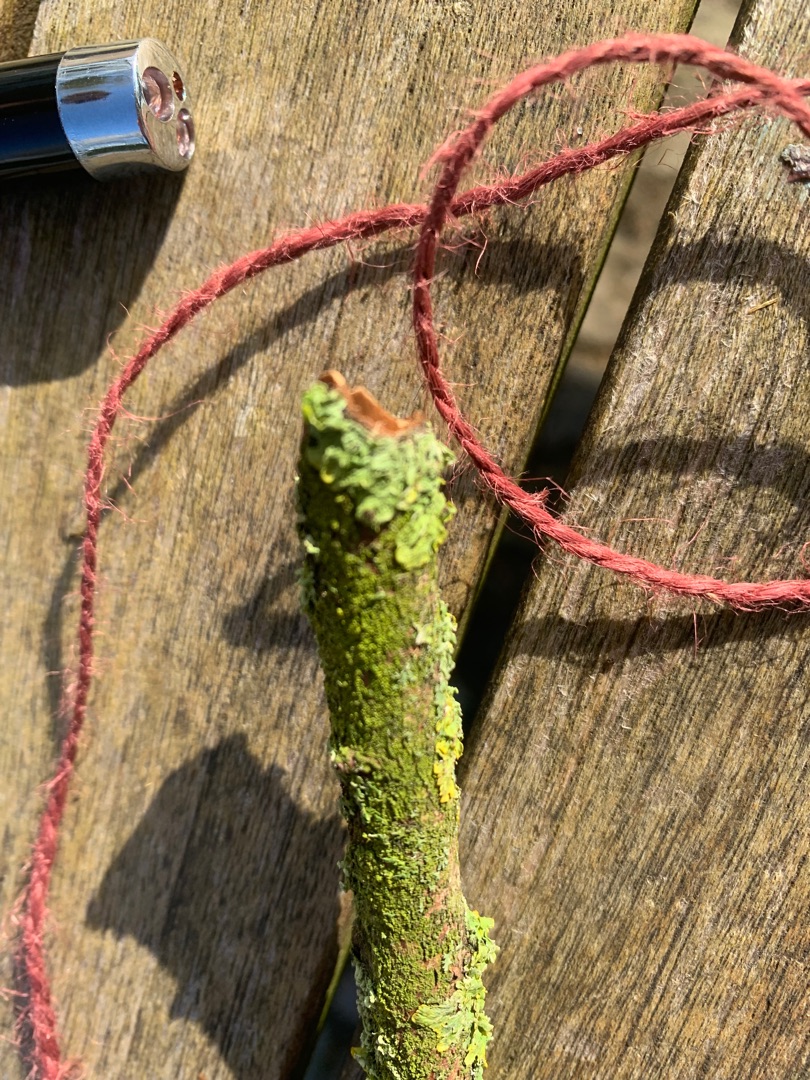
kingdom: Fungi
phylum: Ascomycota
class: Lecanoromycetes
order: Teloschistales
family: Teloschistaceae
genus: Xanthoria
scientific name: Xanthoria parietina
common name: Almindelig væggelav
